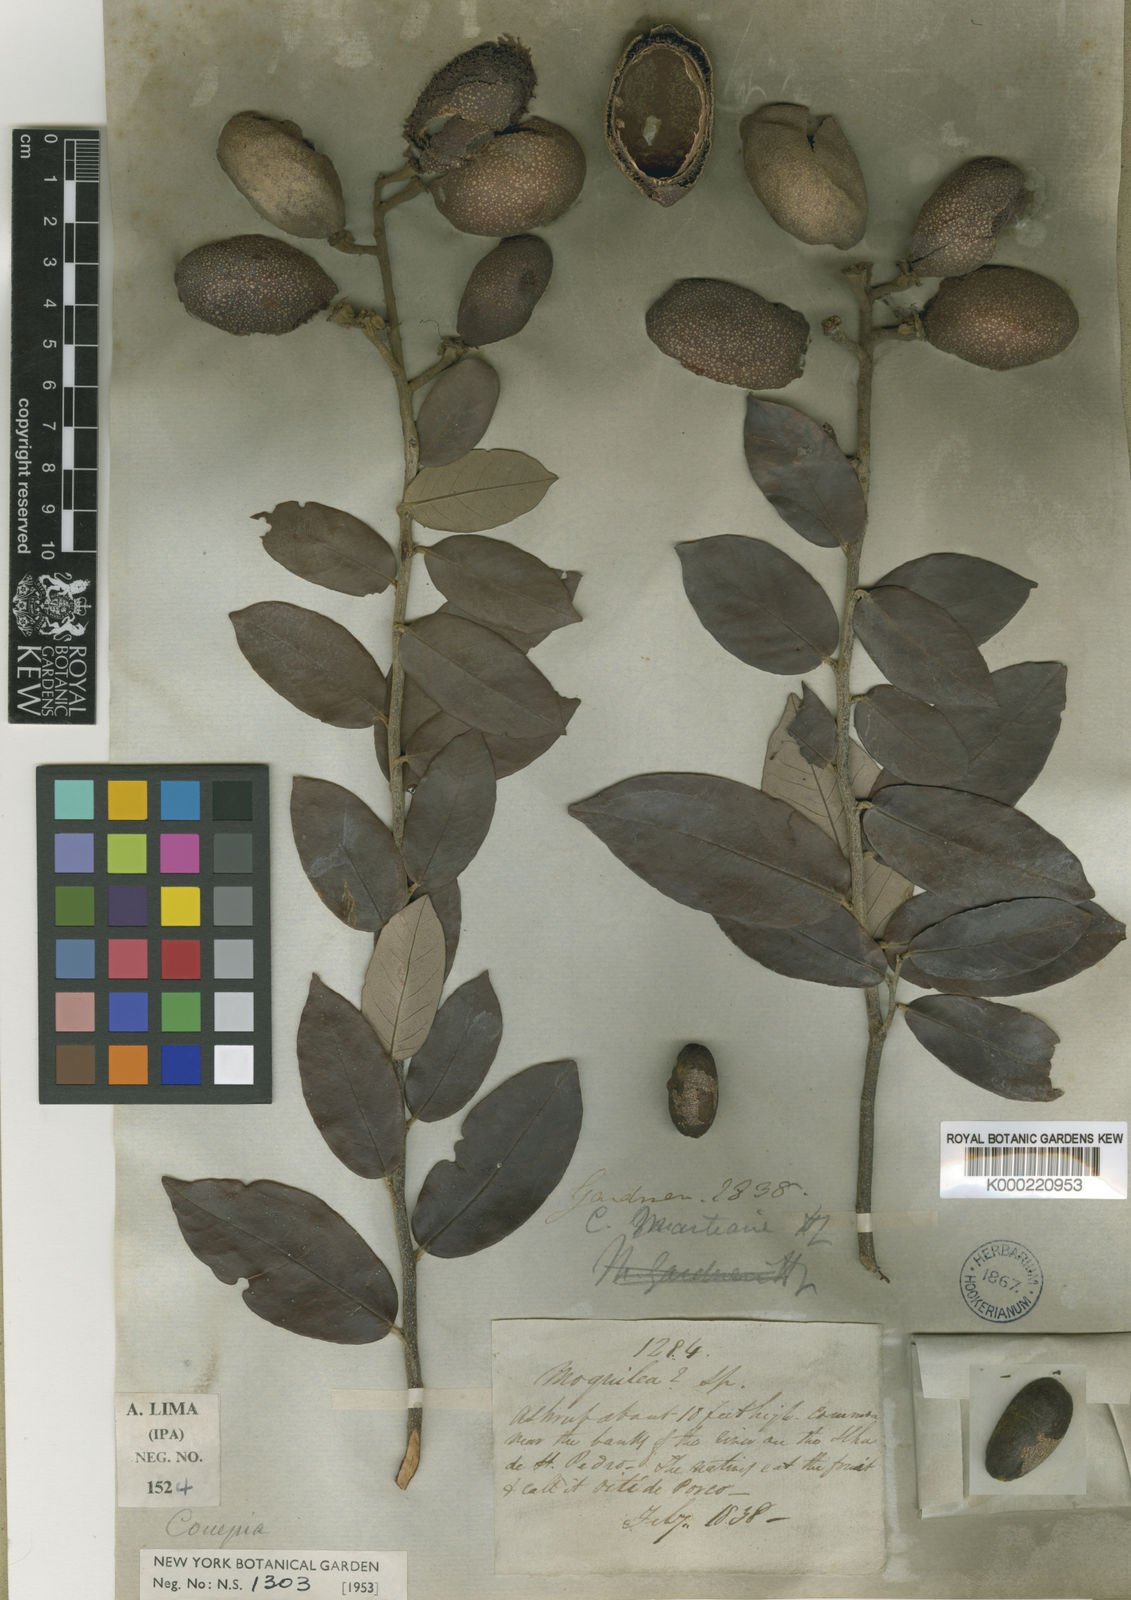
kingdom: Plantae
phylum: Tracheophyta
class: Magnoliopsida
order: Malpighiales
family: Chrysobalanaceae
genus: Couepia
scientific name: Couepia uiti
